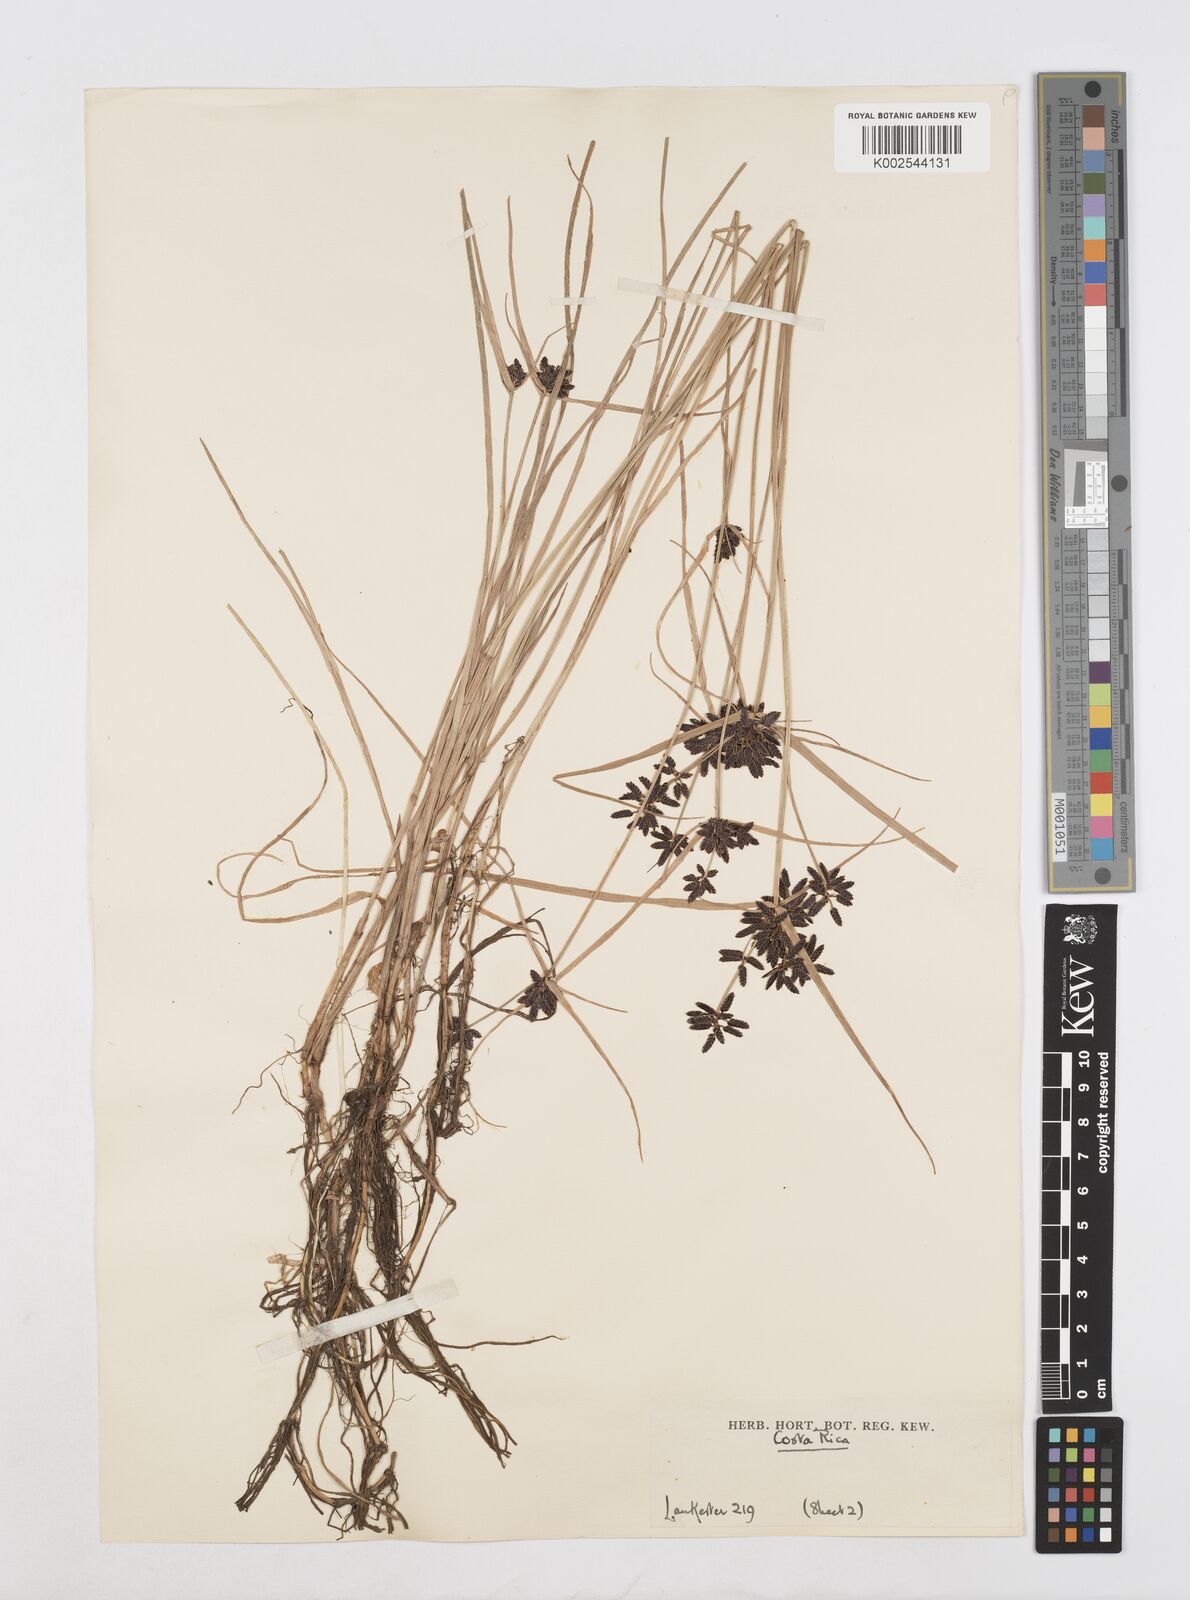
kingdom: Plantae
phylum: Tracheophyta
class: Liliopsida
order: Poales
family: Cyperaceae
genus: Cyperus
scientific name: Cyperus melanostachyus
